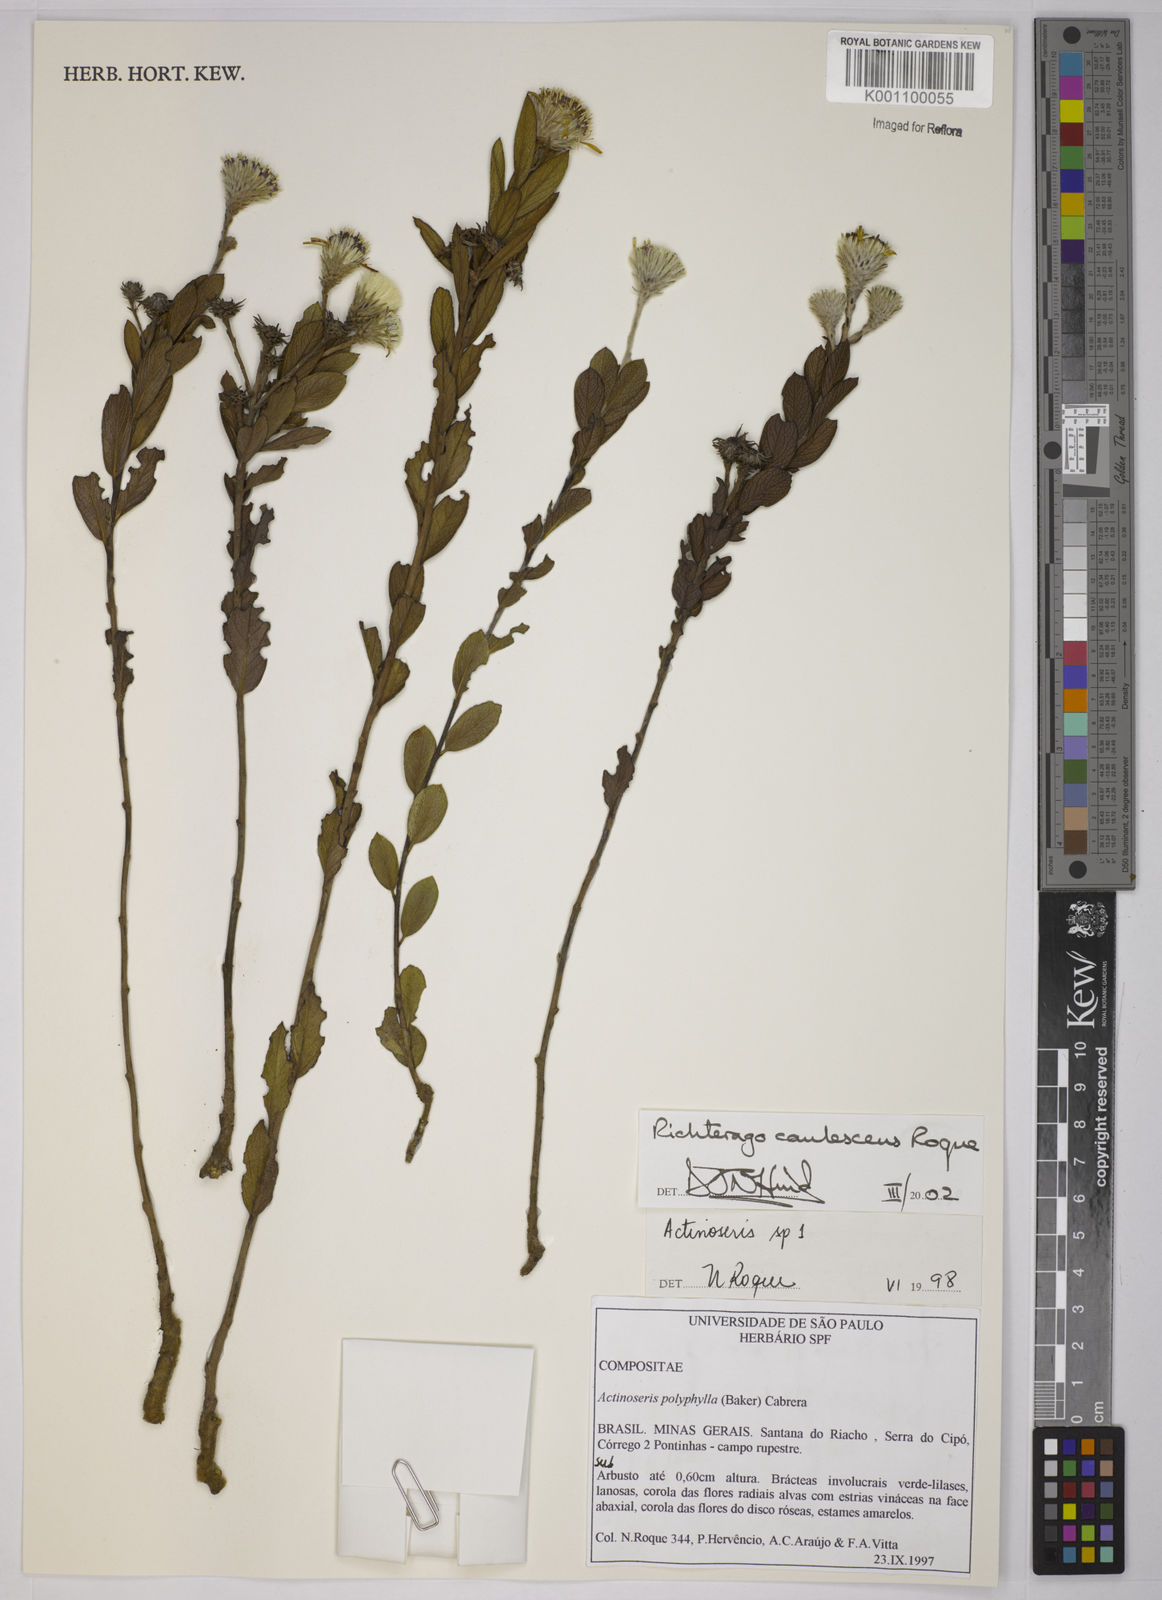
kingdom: Plantae
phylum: Tracheophyta
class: Magnoliopsida
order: Asterales
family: Asteraceae
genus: Richterago
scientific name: Richterago caulescens
